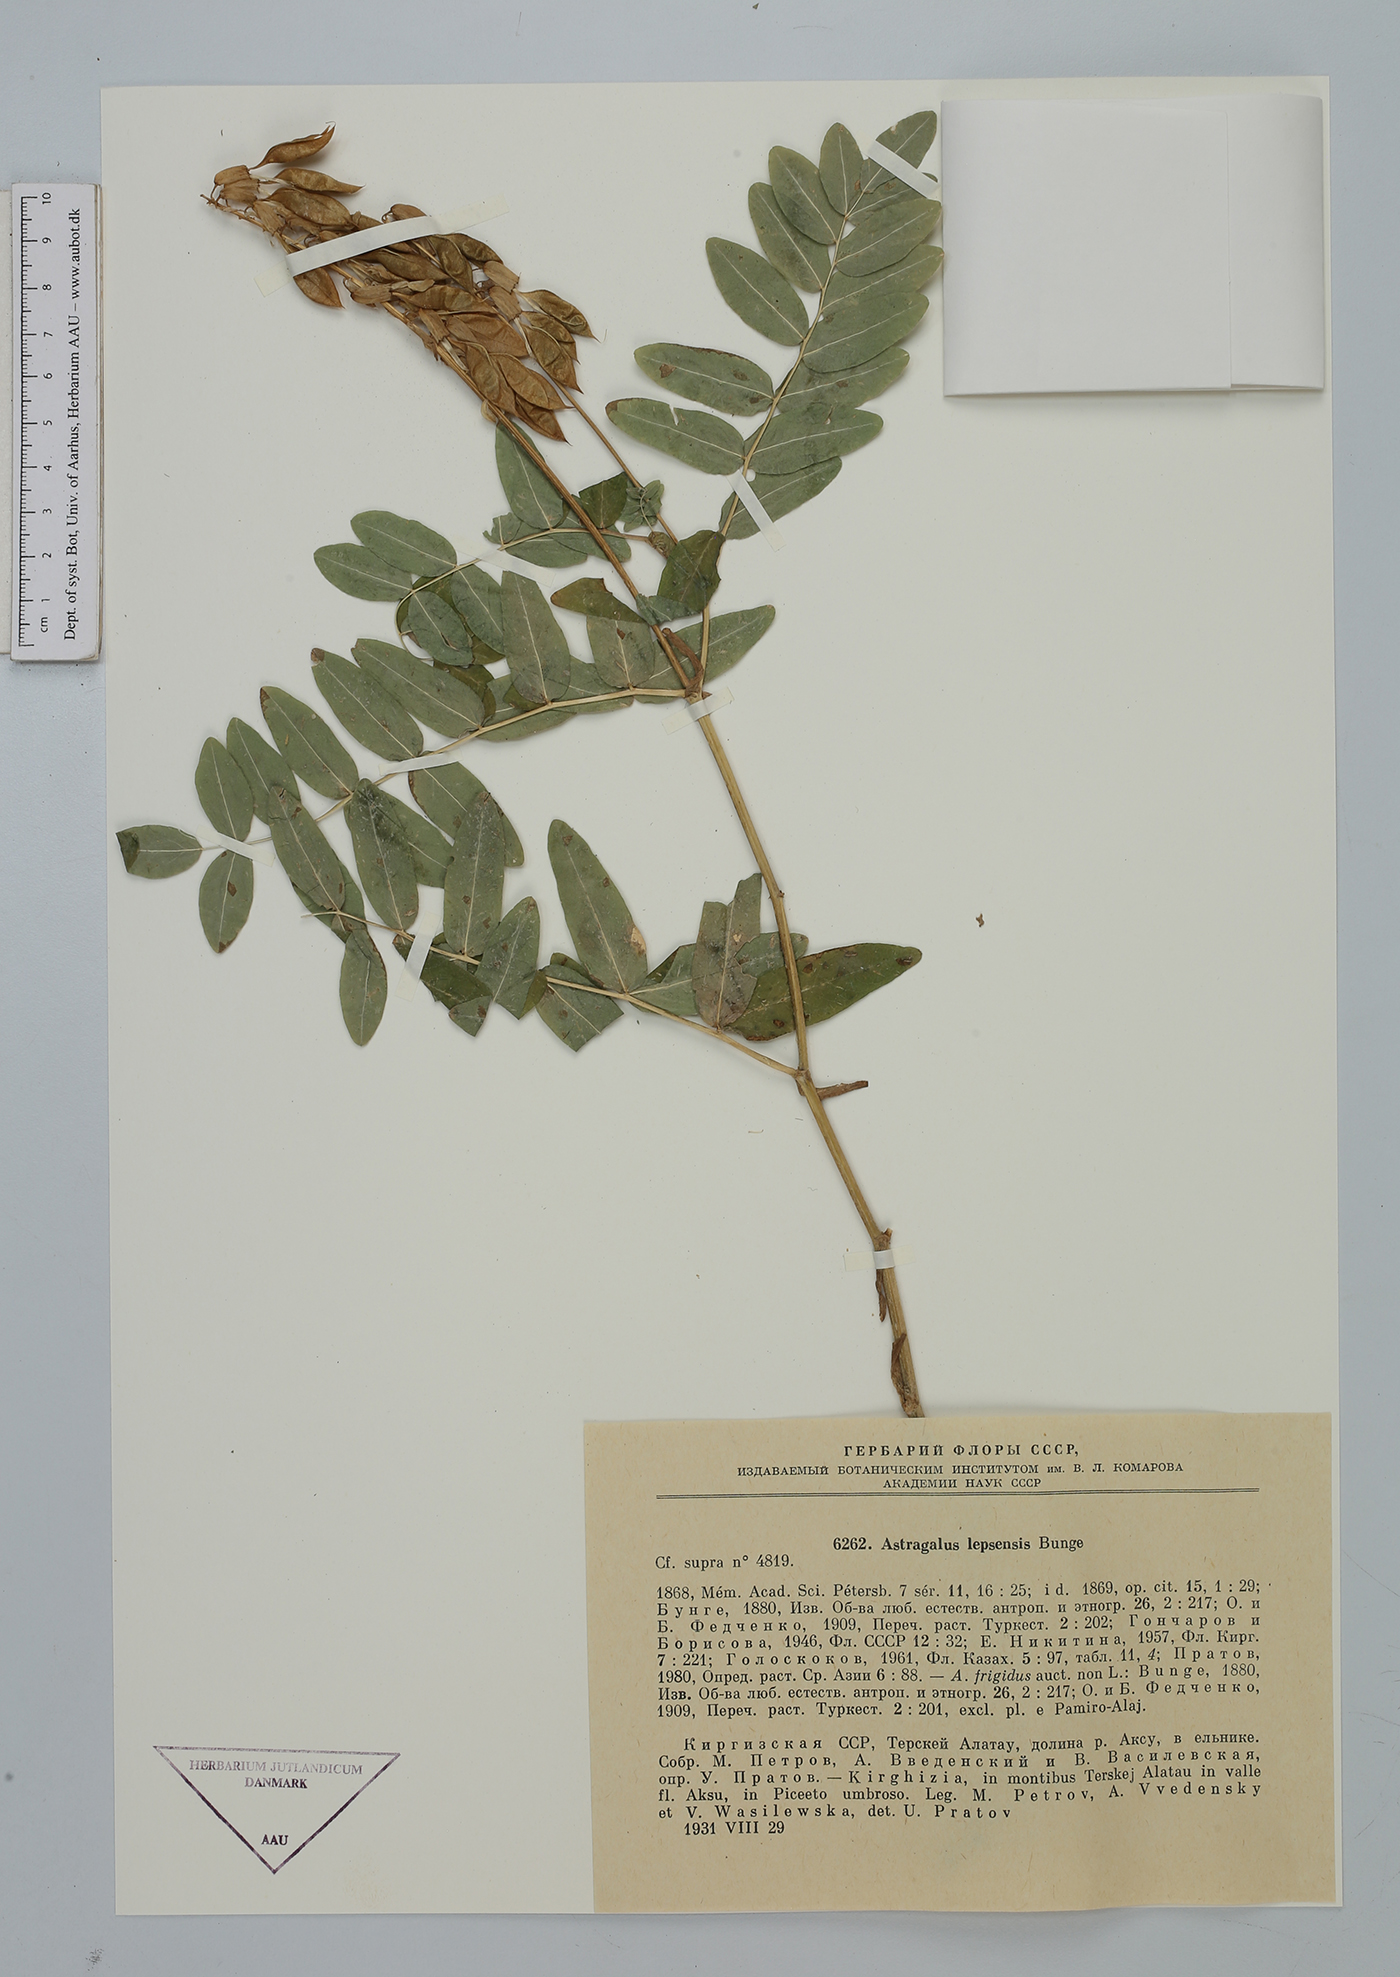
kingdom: Plantae
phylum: Tracheophyta
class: Magnoliopsida
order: Fabales
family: Fabaceae
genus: Astragalus
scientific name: Astragalus lepsensis
